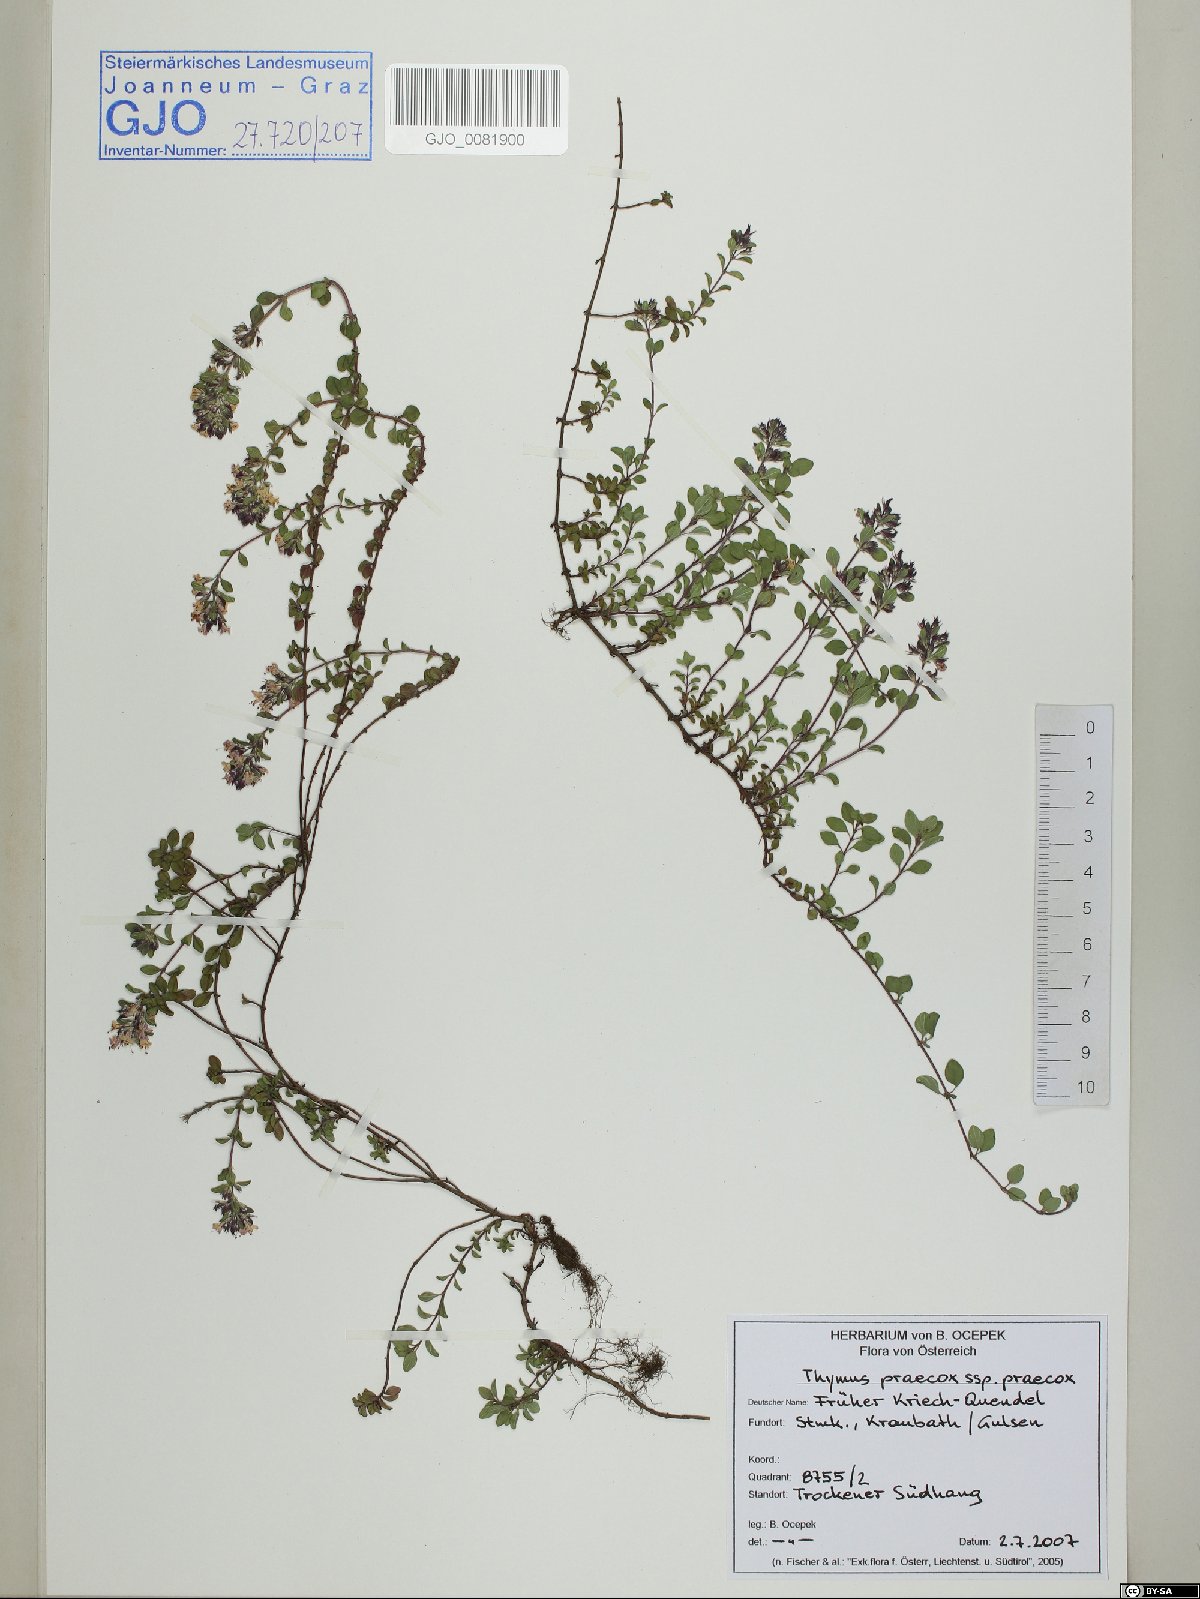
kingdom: Plantae
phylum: Tracheophyta
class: Magnoliopsida
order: Lamiales
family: Lamiaceae
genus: Thymus
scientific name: Thymus praecox
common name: Wild thyme
